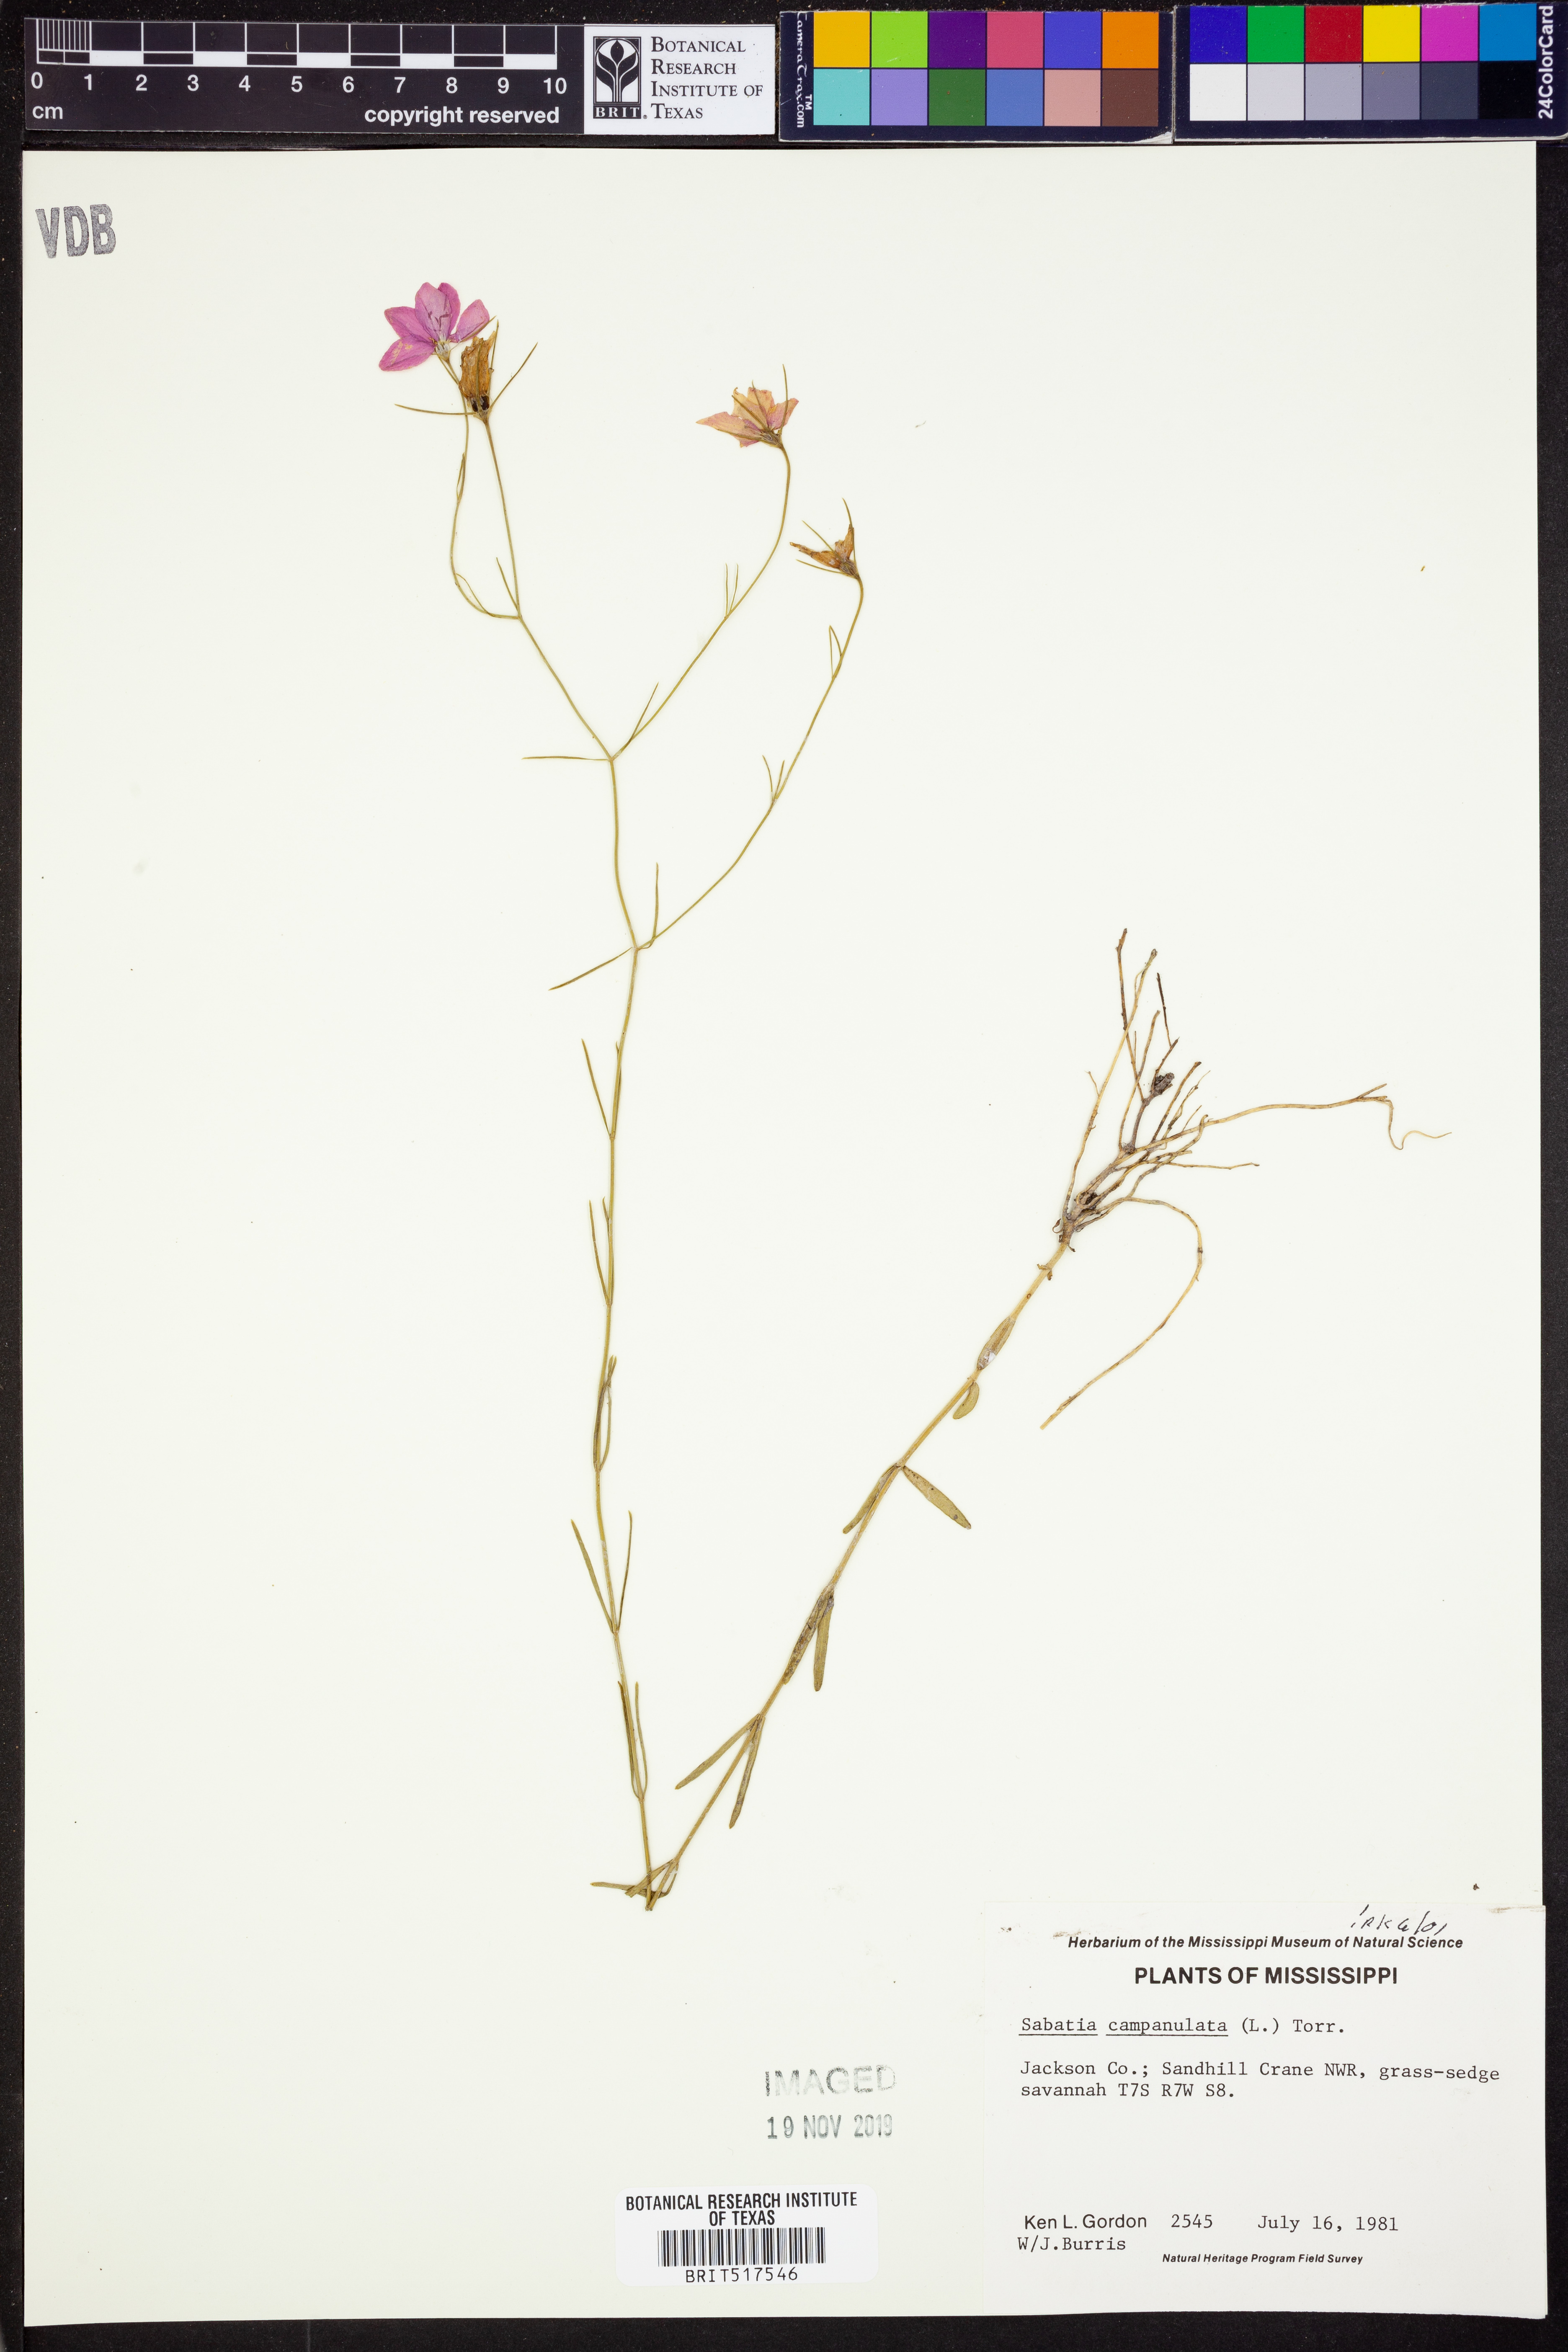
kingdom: Plantae
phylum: Tracheophyta
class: Magnoliopsida
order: Gentianales
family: Gentianaceae
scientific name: Gentianaceae
